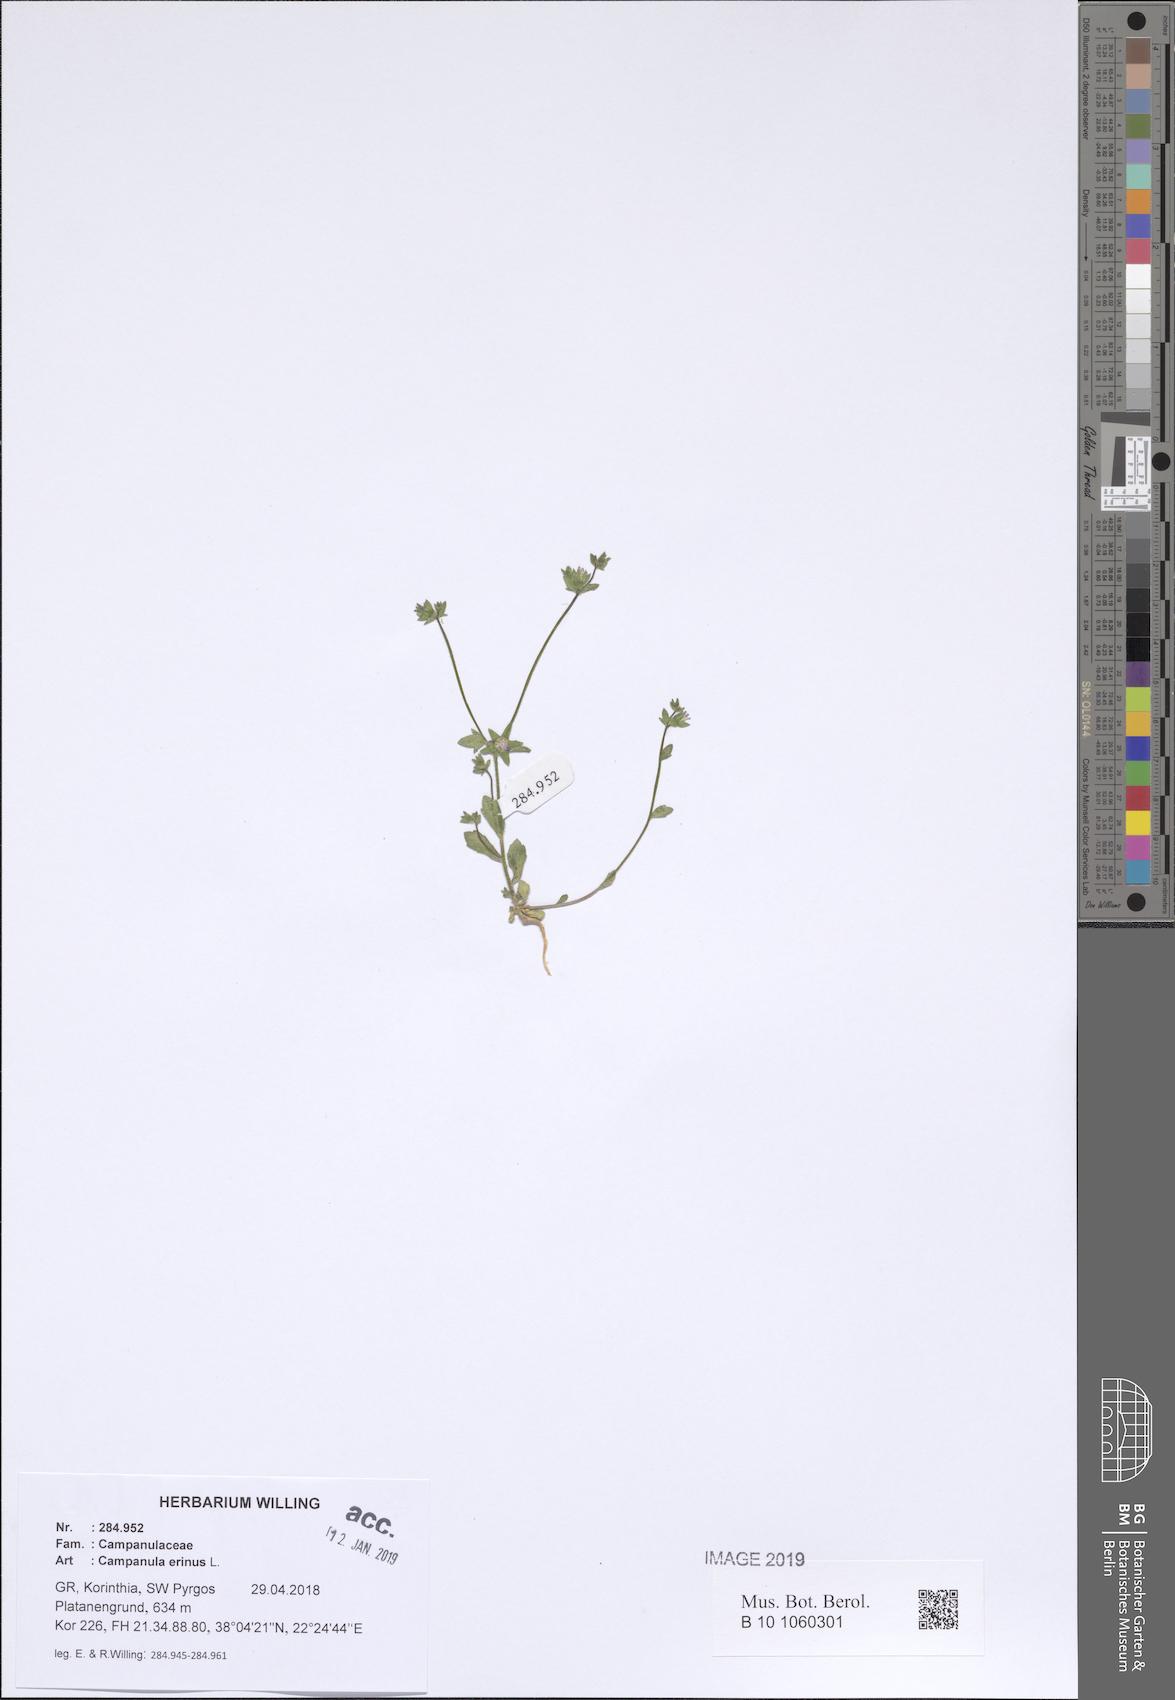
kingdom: Plantae
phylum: Tracheophyta
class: Magnoliopsida
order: Asterales
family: Campanulaceae
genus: Campanula
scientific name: Campanula erinus
